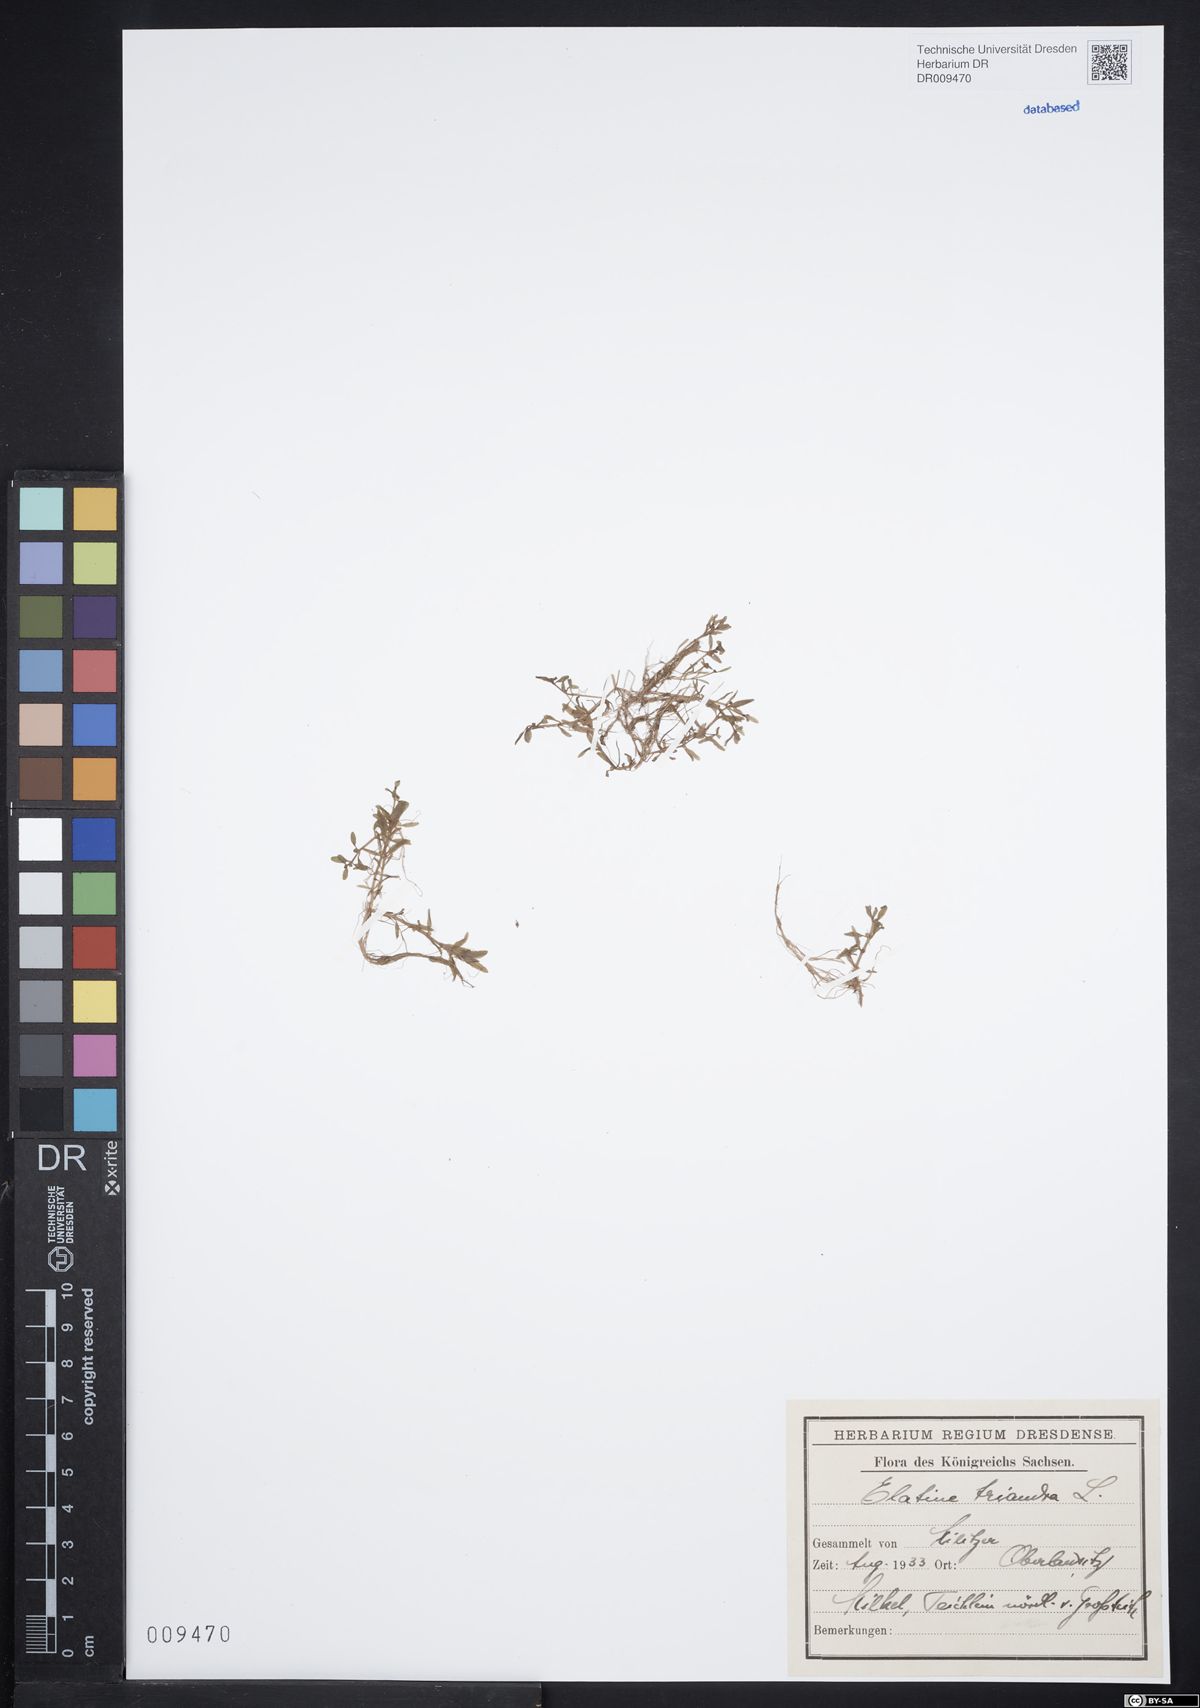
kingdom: Plantae
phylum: Tracheophyta
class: Magnoliopsida
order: Malpighiales
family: Elatinaceae
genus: Elatine
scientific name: Elatine hexandra
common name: Six-stamened waterwort
